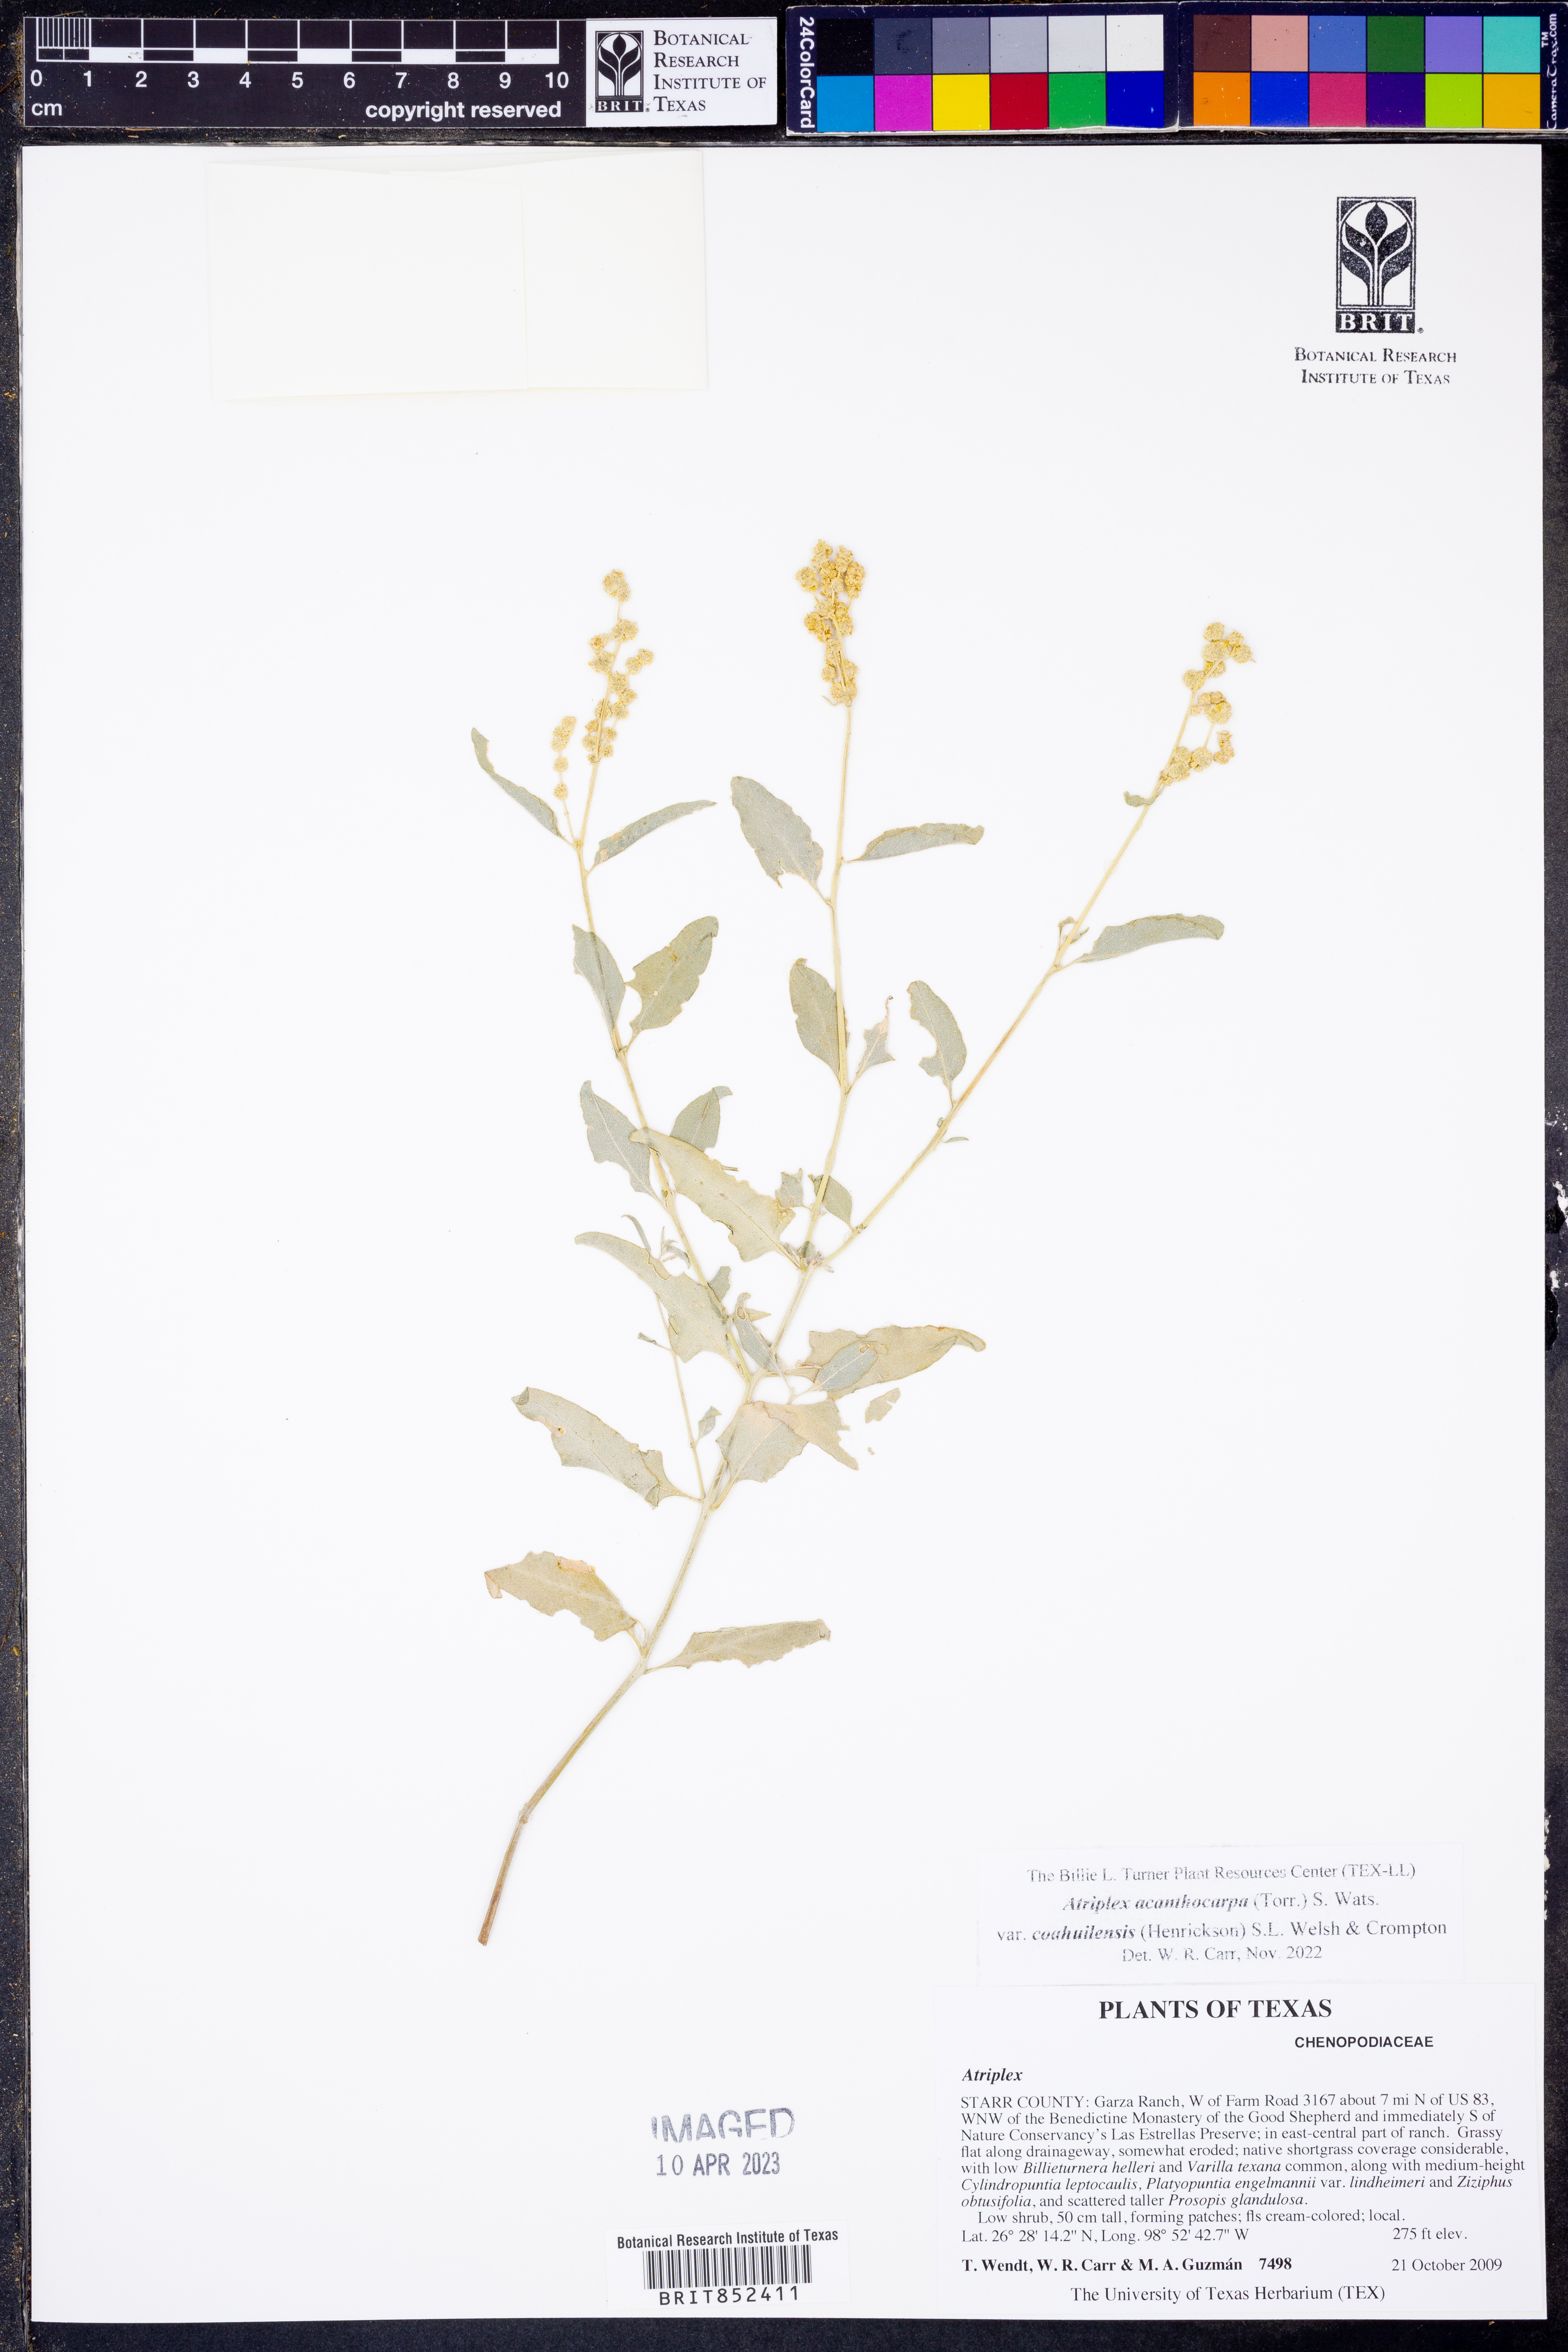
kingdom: Plantae
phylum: Tracheophyta
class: Magnoliopsida
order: Caryophyllales
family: Amaranthaceae
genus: Atriplex
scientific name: Atriplex acanthocarpa
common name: Burscale
